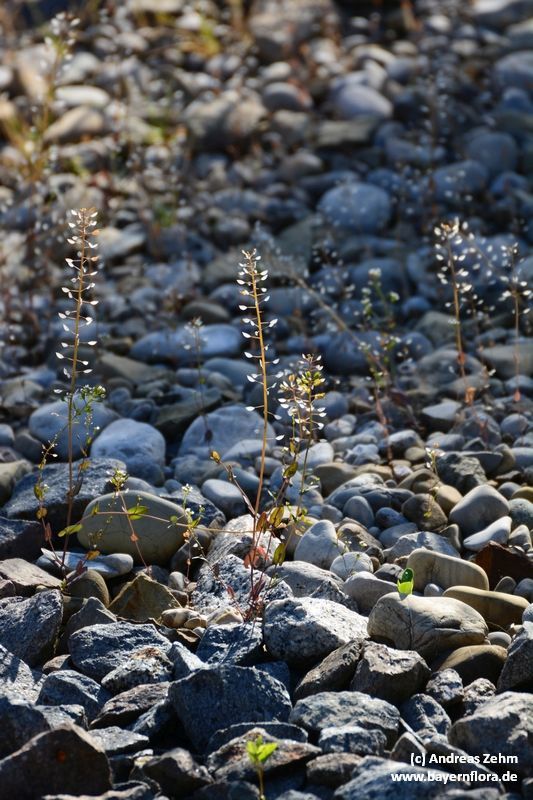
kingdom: Plantae
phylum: Tracheophyta
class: Magnoliopsida
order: Brassicales
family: Brassicaceae
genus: Noccaea
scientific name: Noccaea perfoliata
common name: Perfoliate pennycress
